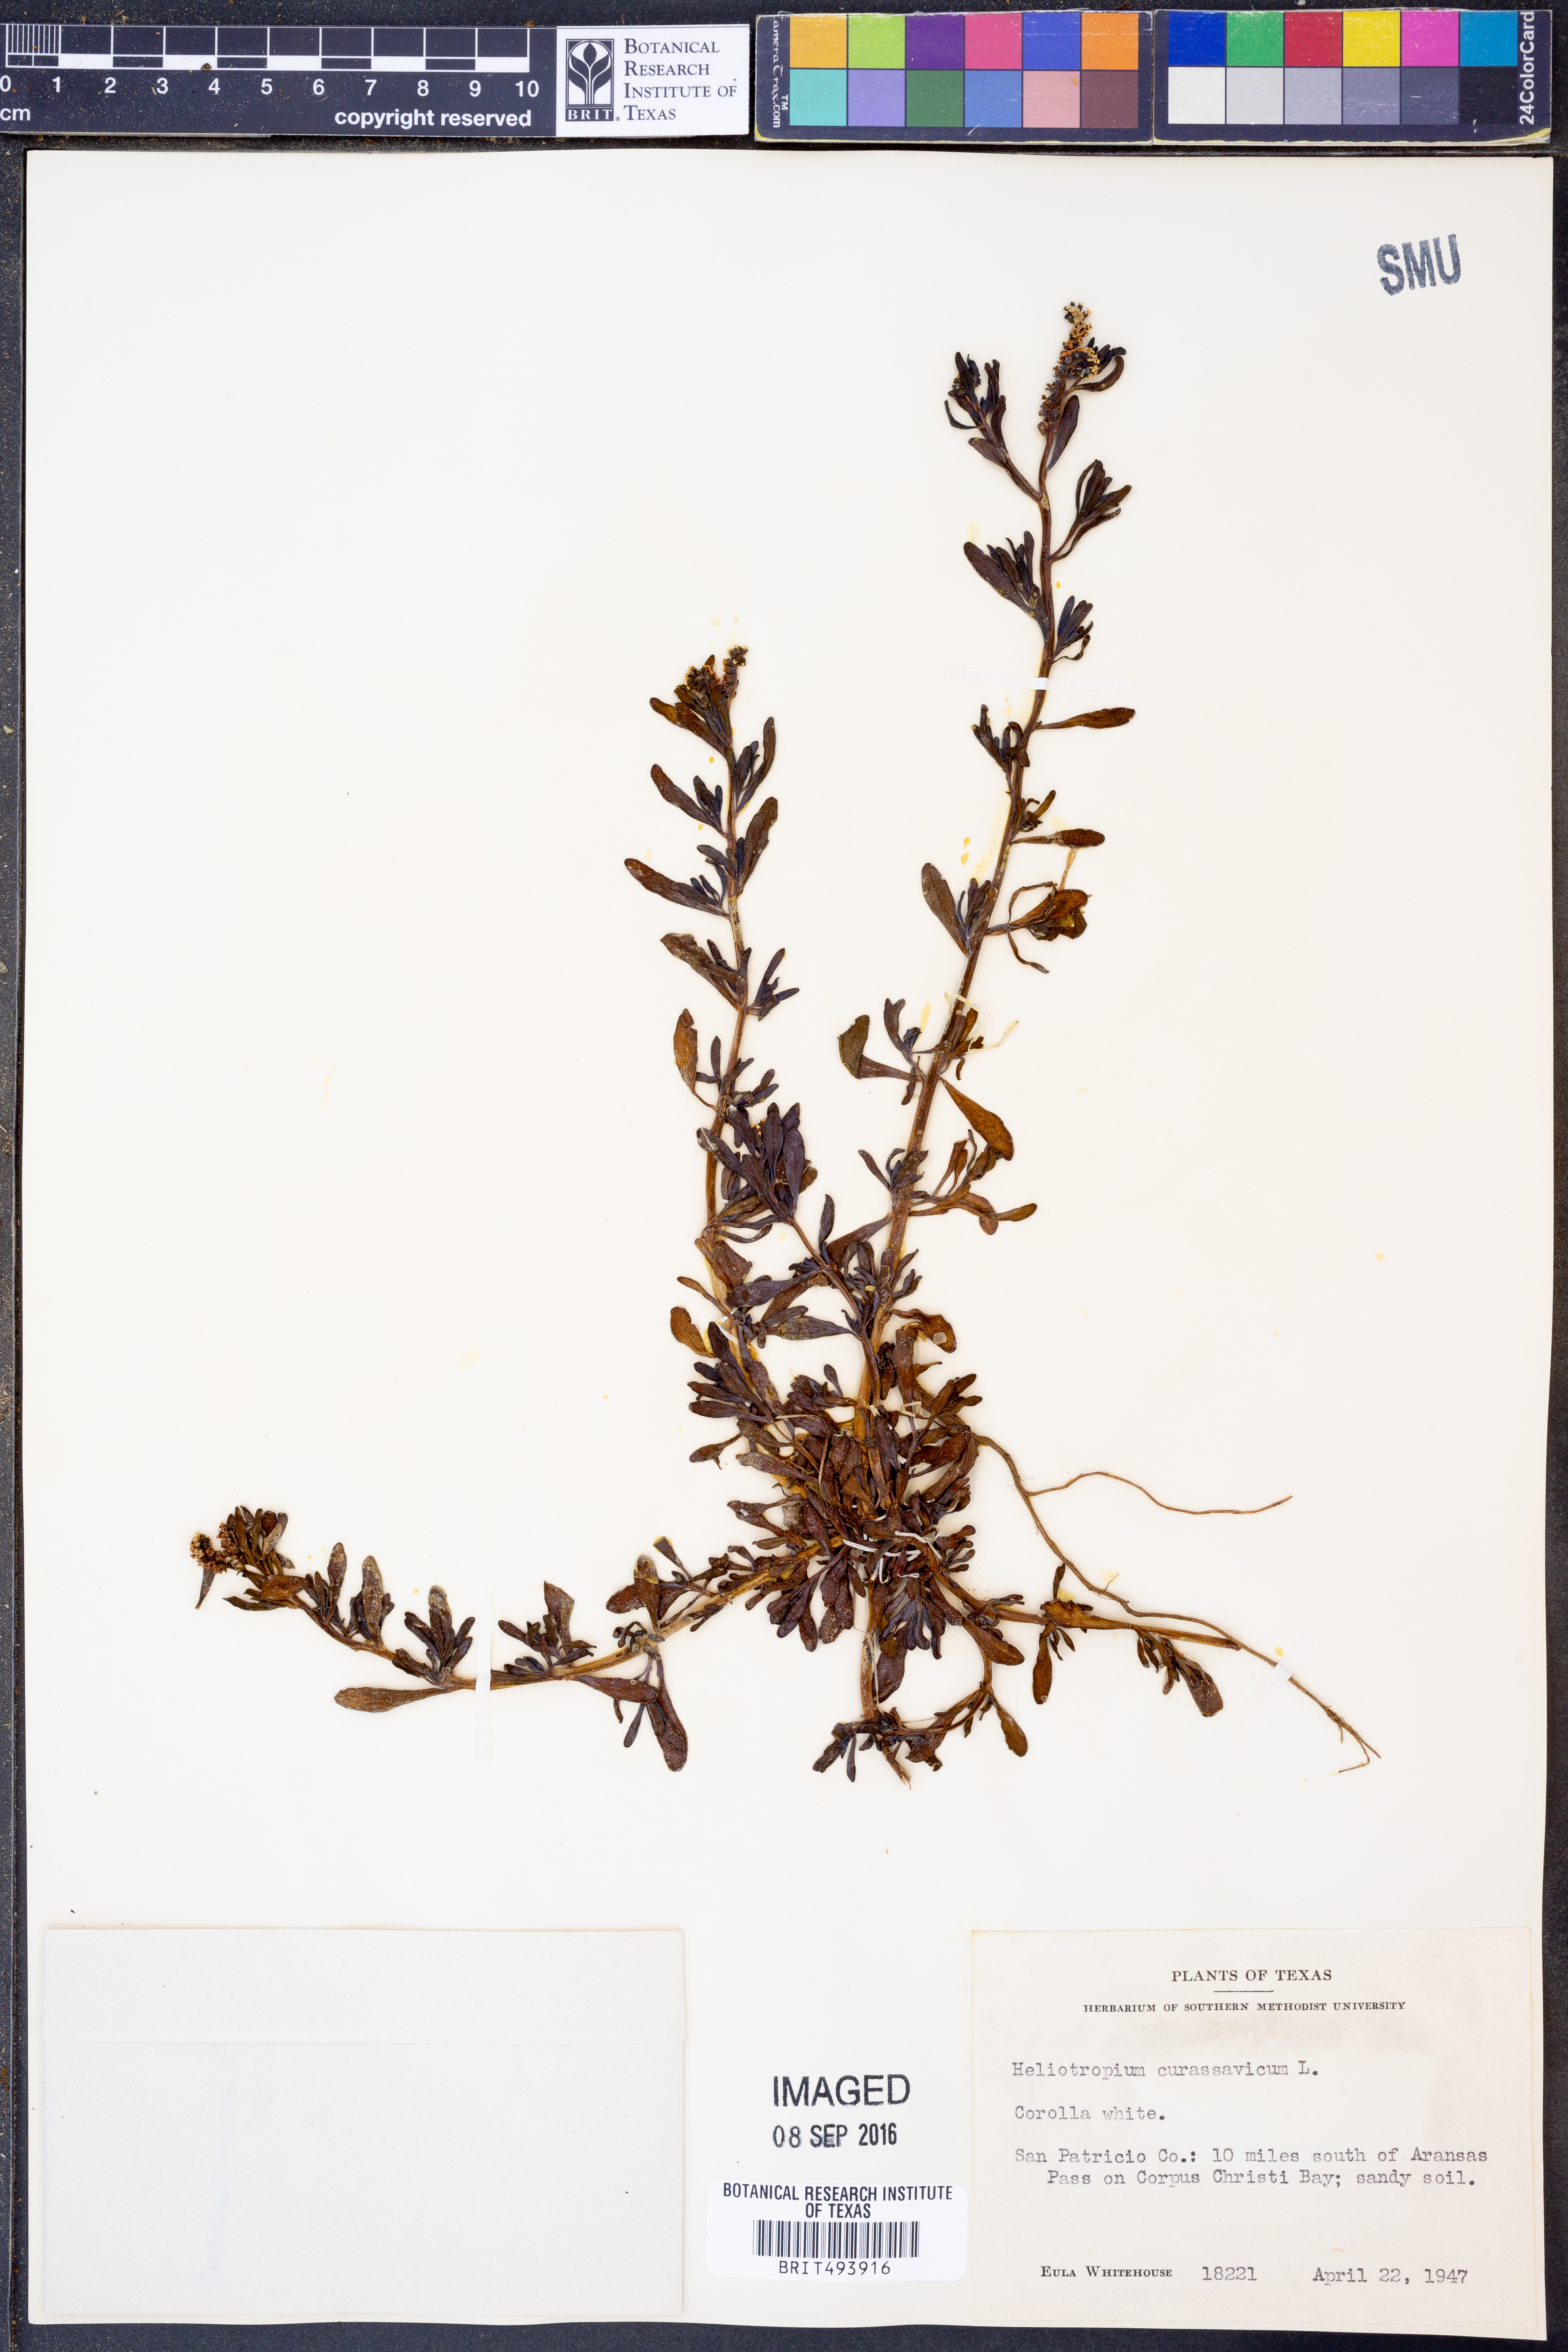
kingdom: Plantae
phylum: Tracheophyta
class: Magnoliopsida
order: Boraginales
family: Heliotropiaceae
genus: Heliotropium
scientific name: Heliotropium curassavicum
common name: Seaside heliotrope
